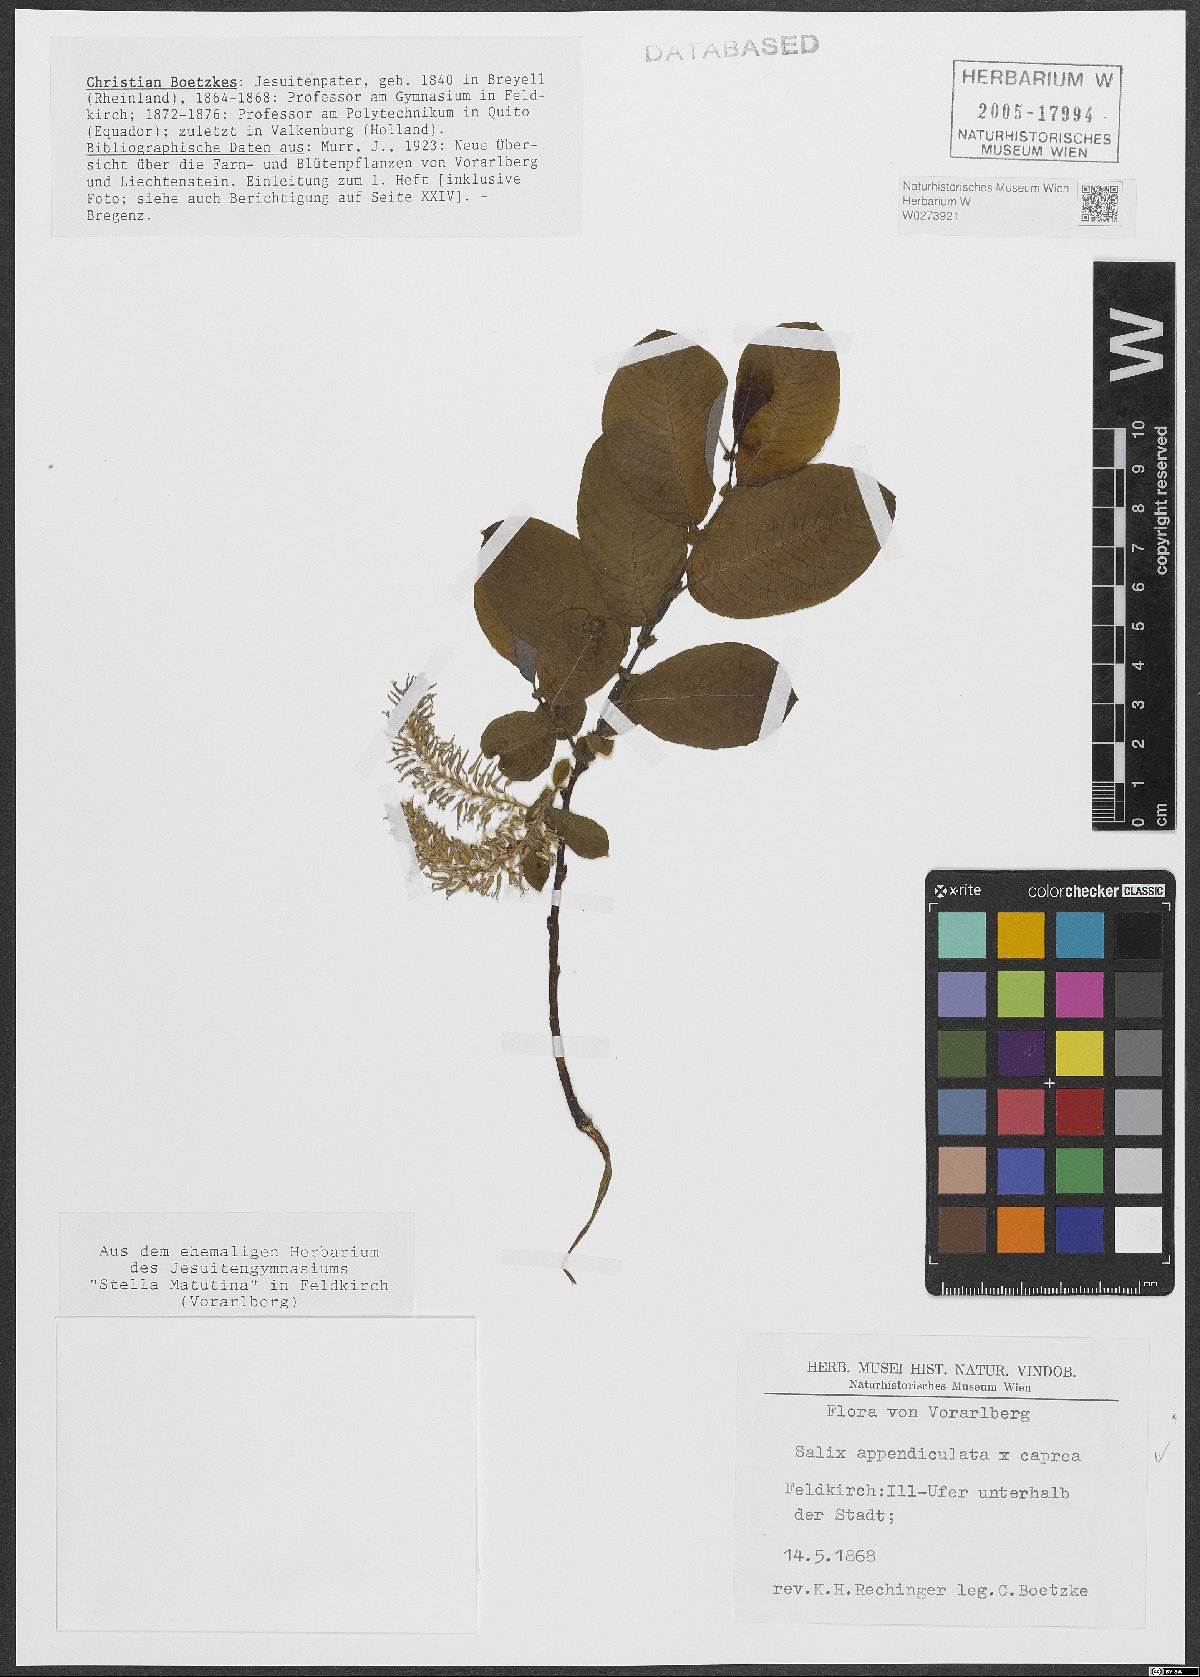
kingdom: Plantae
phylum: Tracheophyta
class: Magnoliopsida
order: Malpighiales
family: Salicaceae
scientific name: Salicaceae
